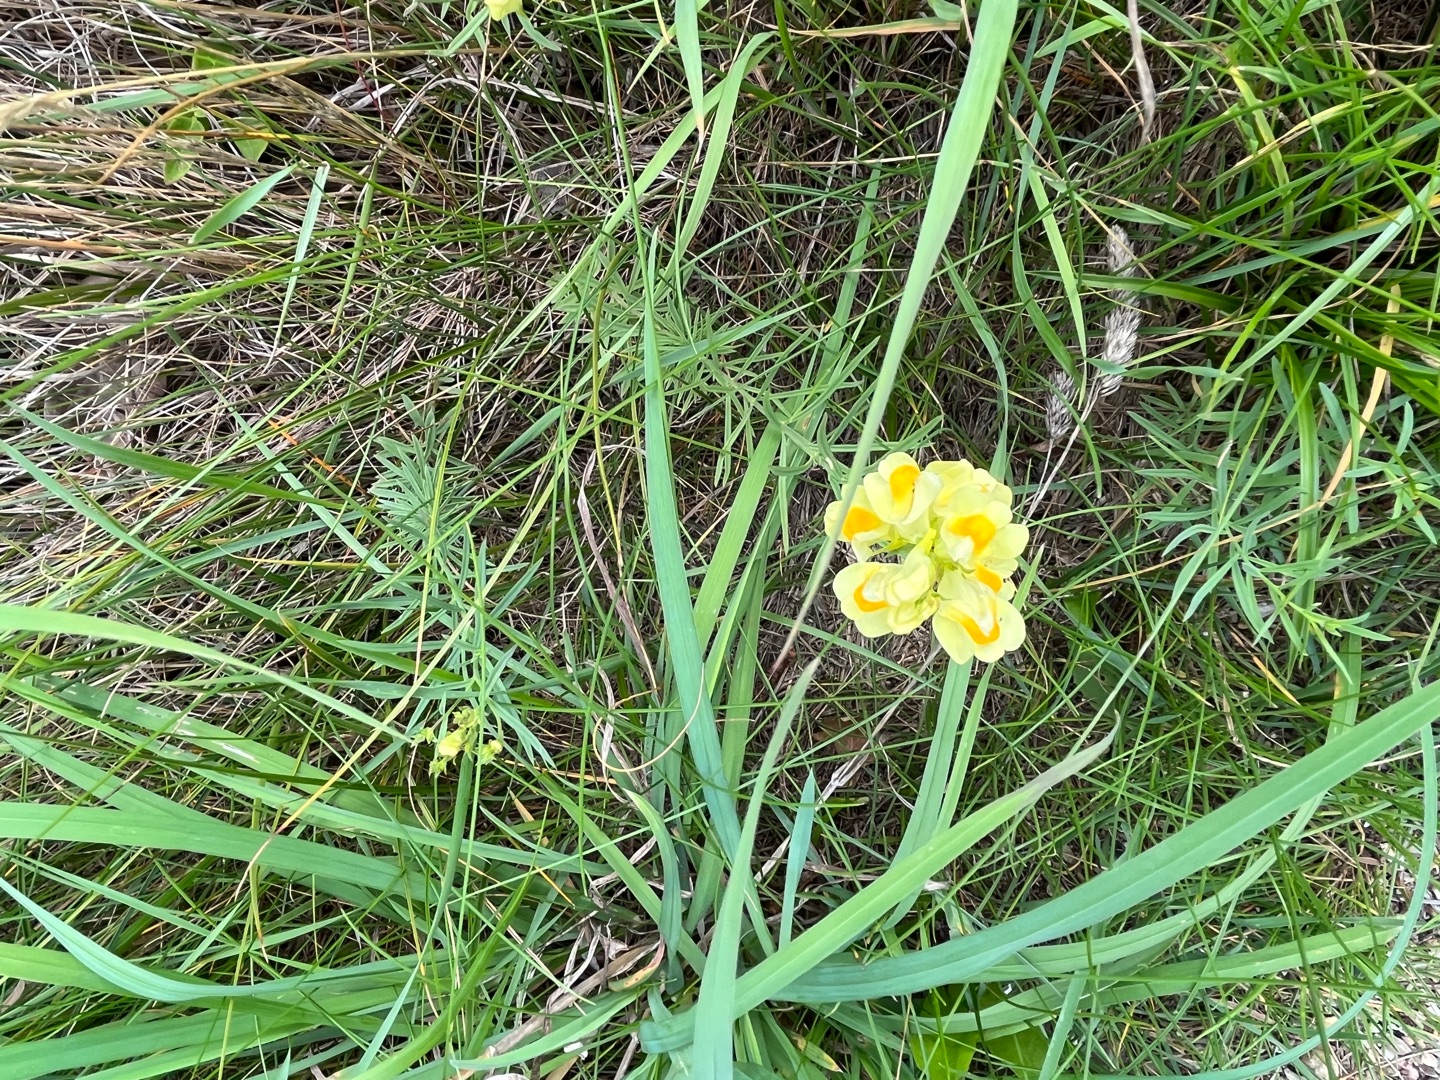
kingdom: Plantae
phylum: Tracheophyta
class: Magnoliopsida
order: Lamiales
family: Plantaginaceae
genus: Linaria
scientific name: Linaria vulgaris
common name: Almindelig torskemund
